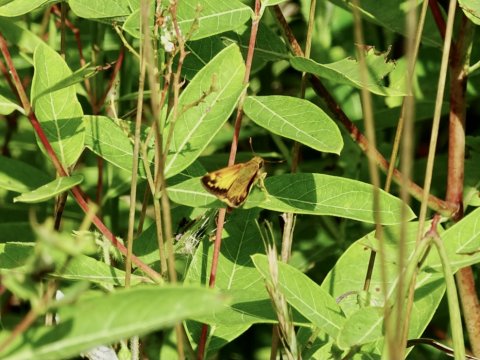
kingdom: Animalia
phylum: Arthropoda
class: Insecta
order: Lepidoptera
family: Hesperiidae
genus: Lon
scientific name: Lon zabulon
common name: Zabulon Skipper
